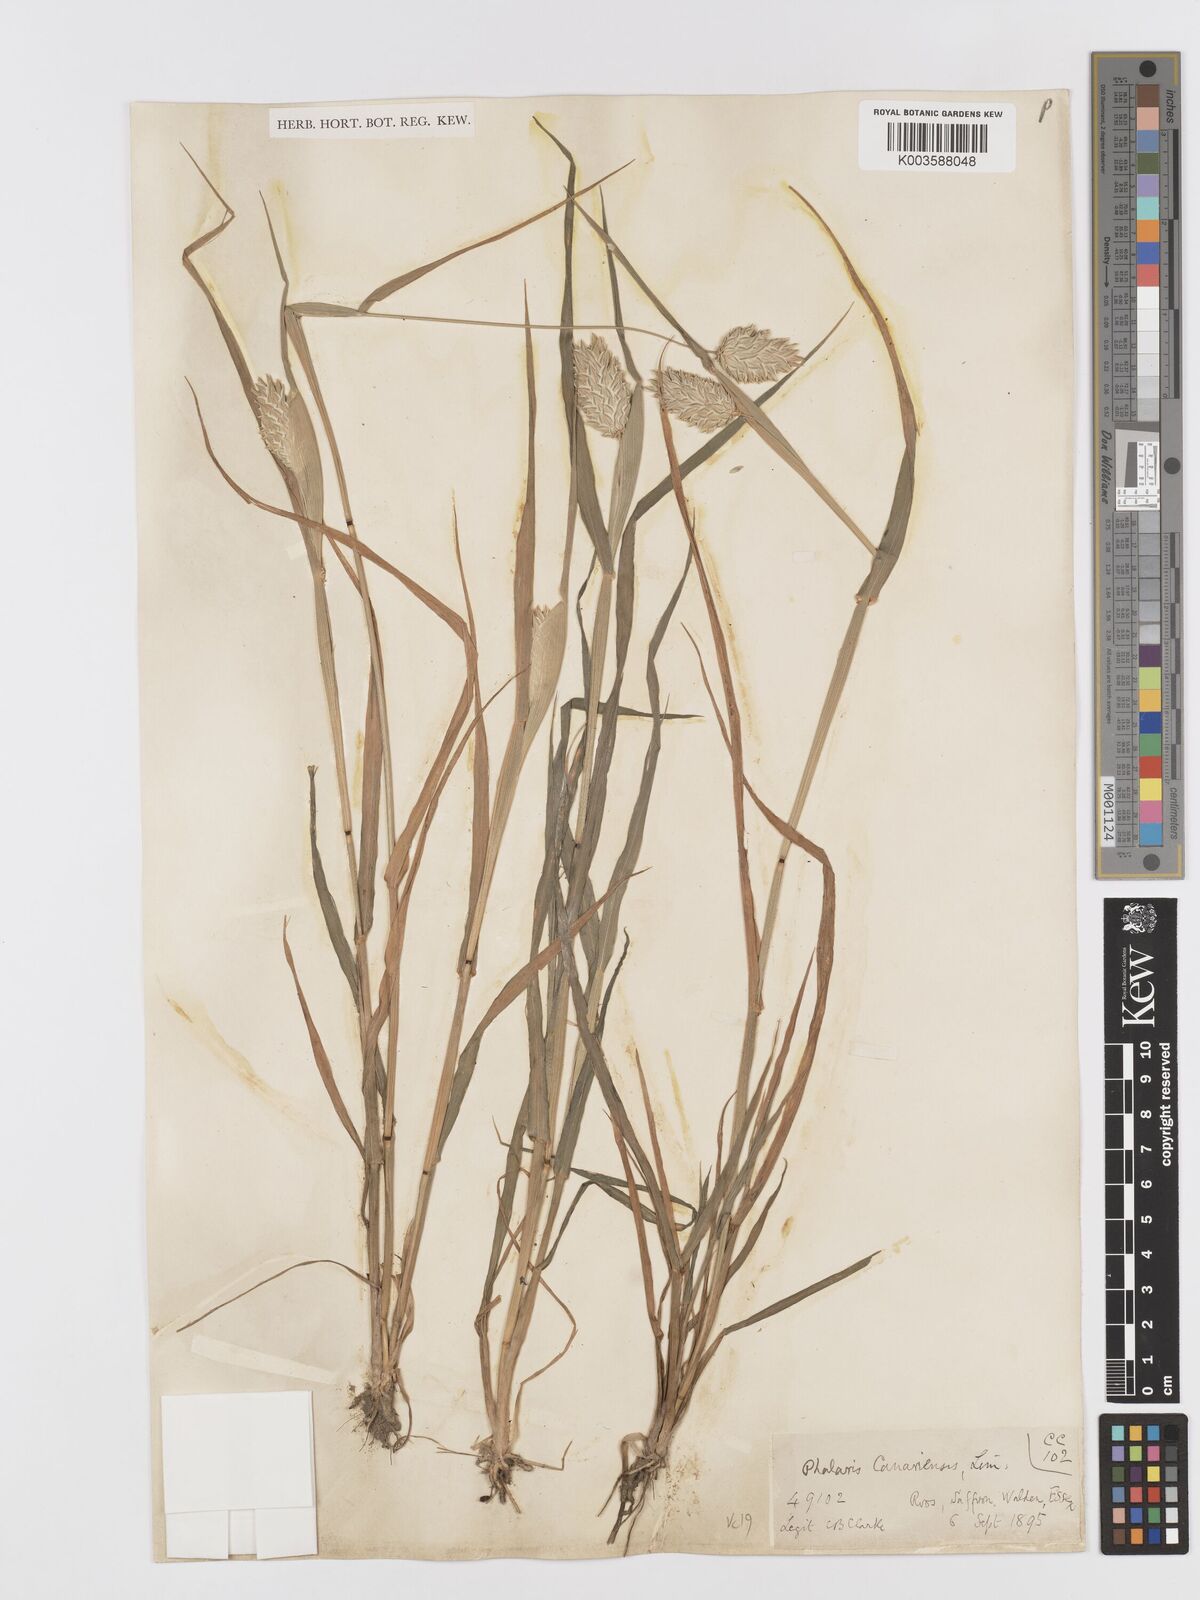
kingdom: Plantae
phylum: Tracheophyta
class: Liliopsida
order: Poales
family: Poaceae
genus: Phalaris
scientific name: Phalaris canariensis
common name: Annual canarygrass
